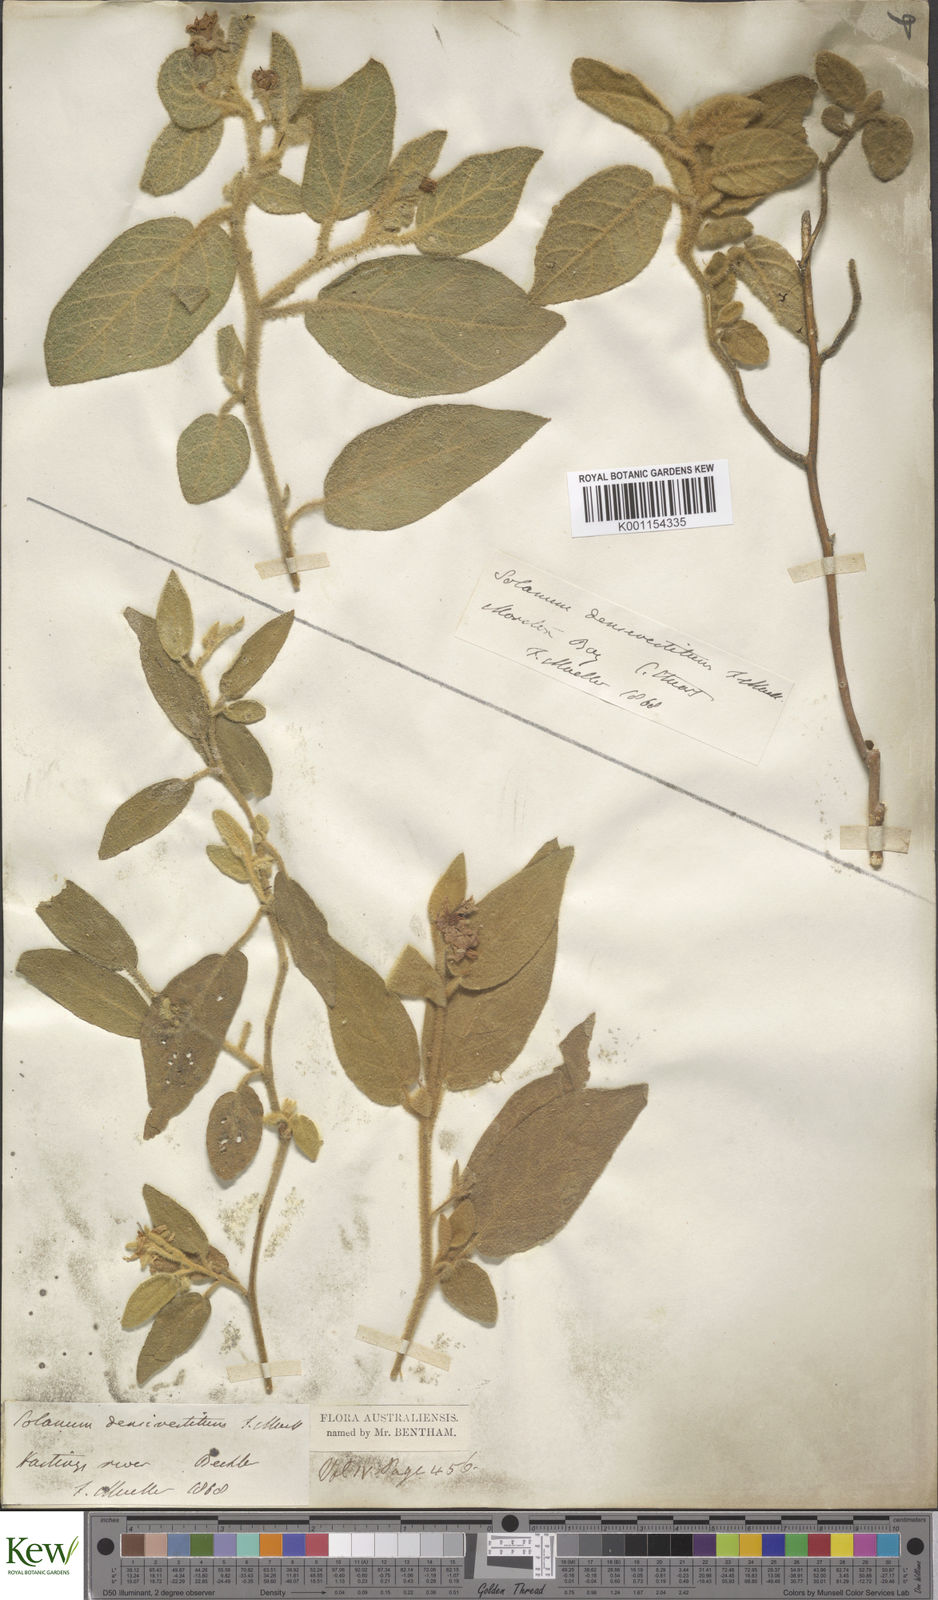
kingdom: Plantae
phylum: Tracheophyta
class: Magnoliopsida
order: Solanales
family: Solanaceae
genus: Solanum
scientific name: Solanum densevestitum
